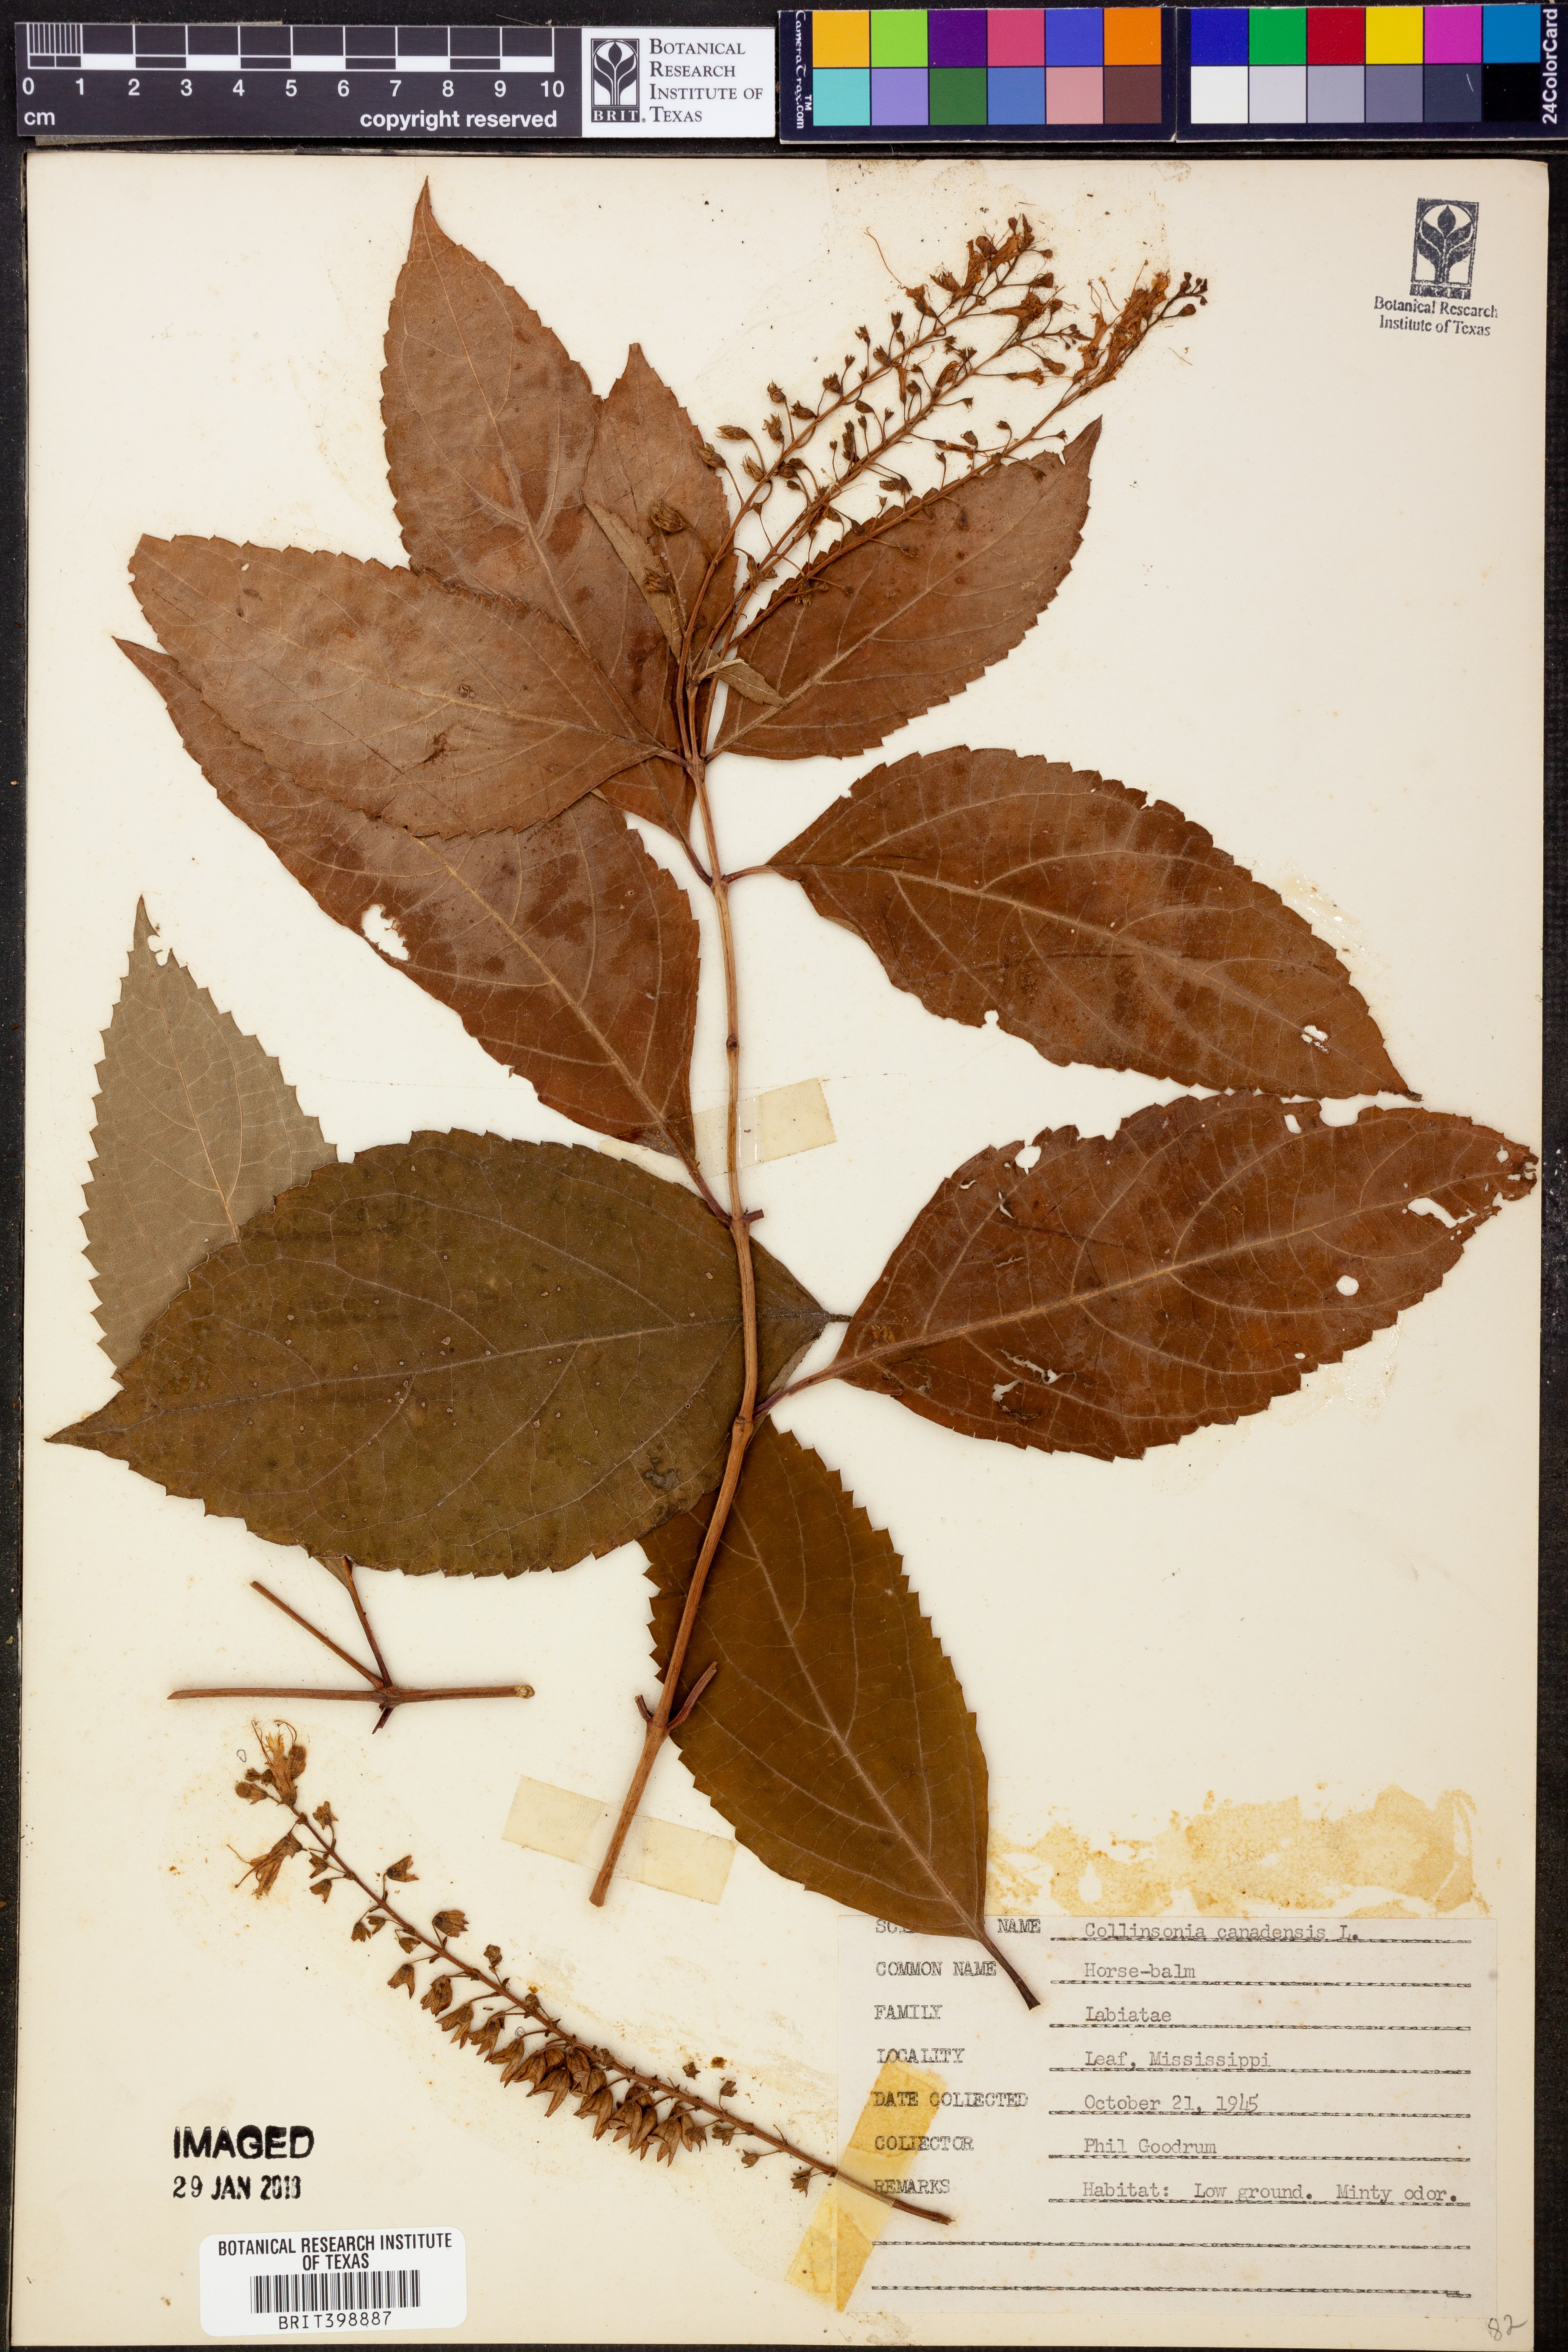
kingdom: Plantae
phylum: Tracheophyta
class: Magnoliopsida
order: Lamiales
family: Lamiaceae
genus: Collinsonia
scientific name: Collinsonia canadensis
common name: Northern horsebalm
